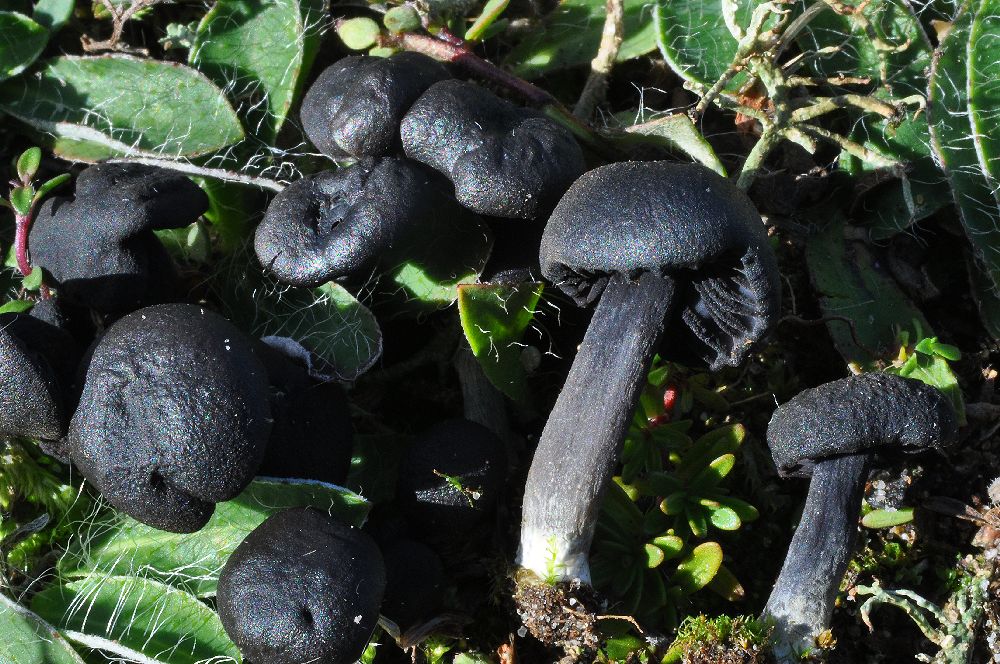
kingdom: Fungi
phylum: Basidiomycota
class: Agaricomycetes
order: Agaricales
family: Entolomataceae
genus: Entoloma
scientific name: Entoloma
